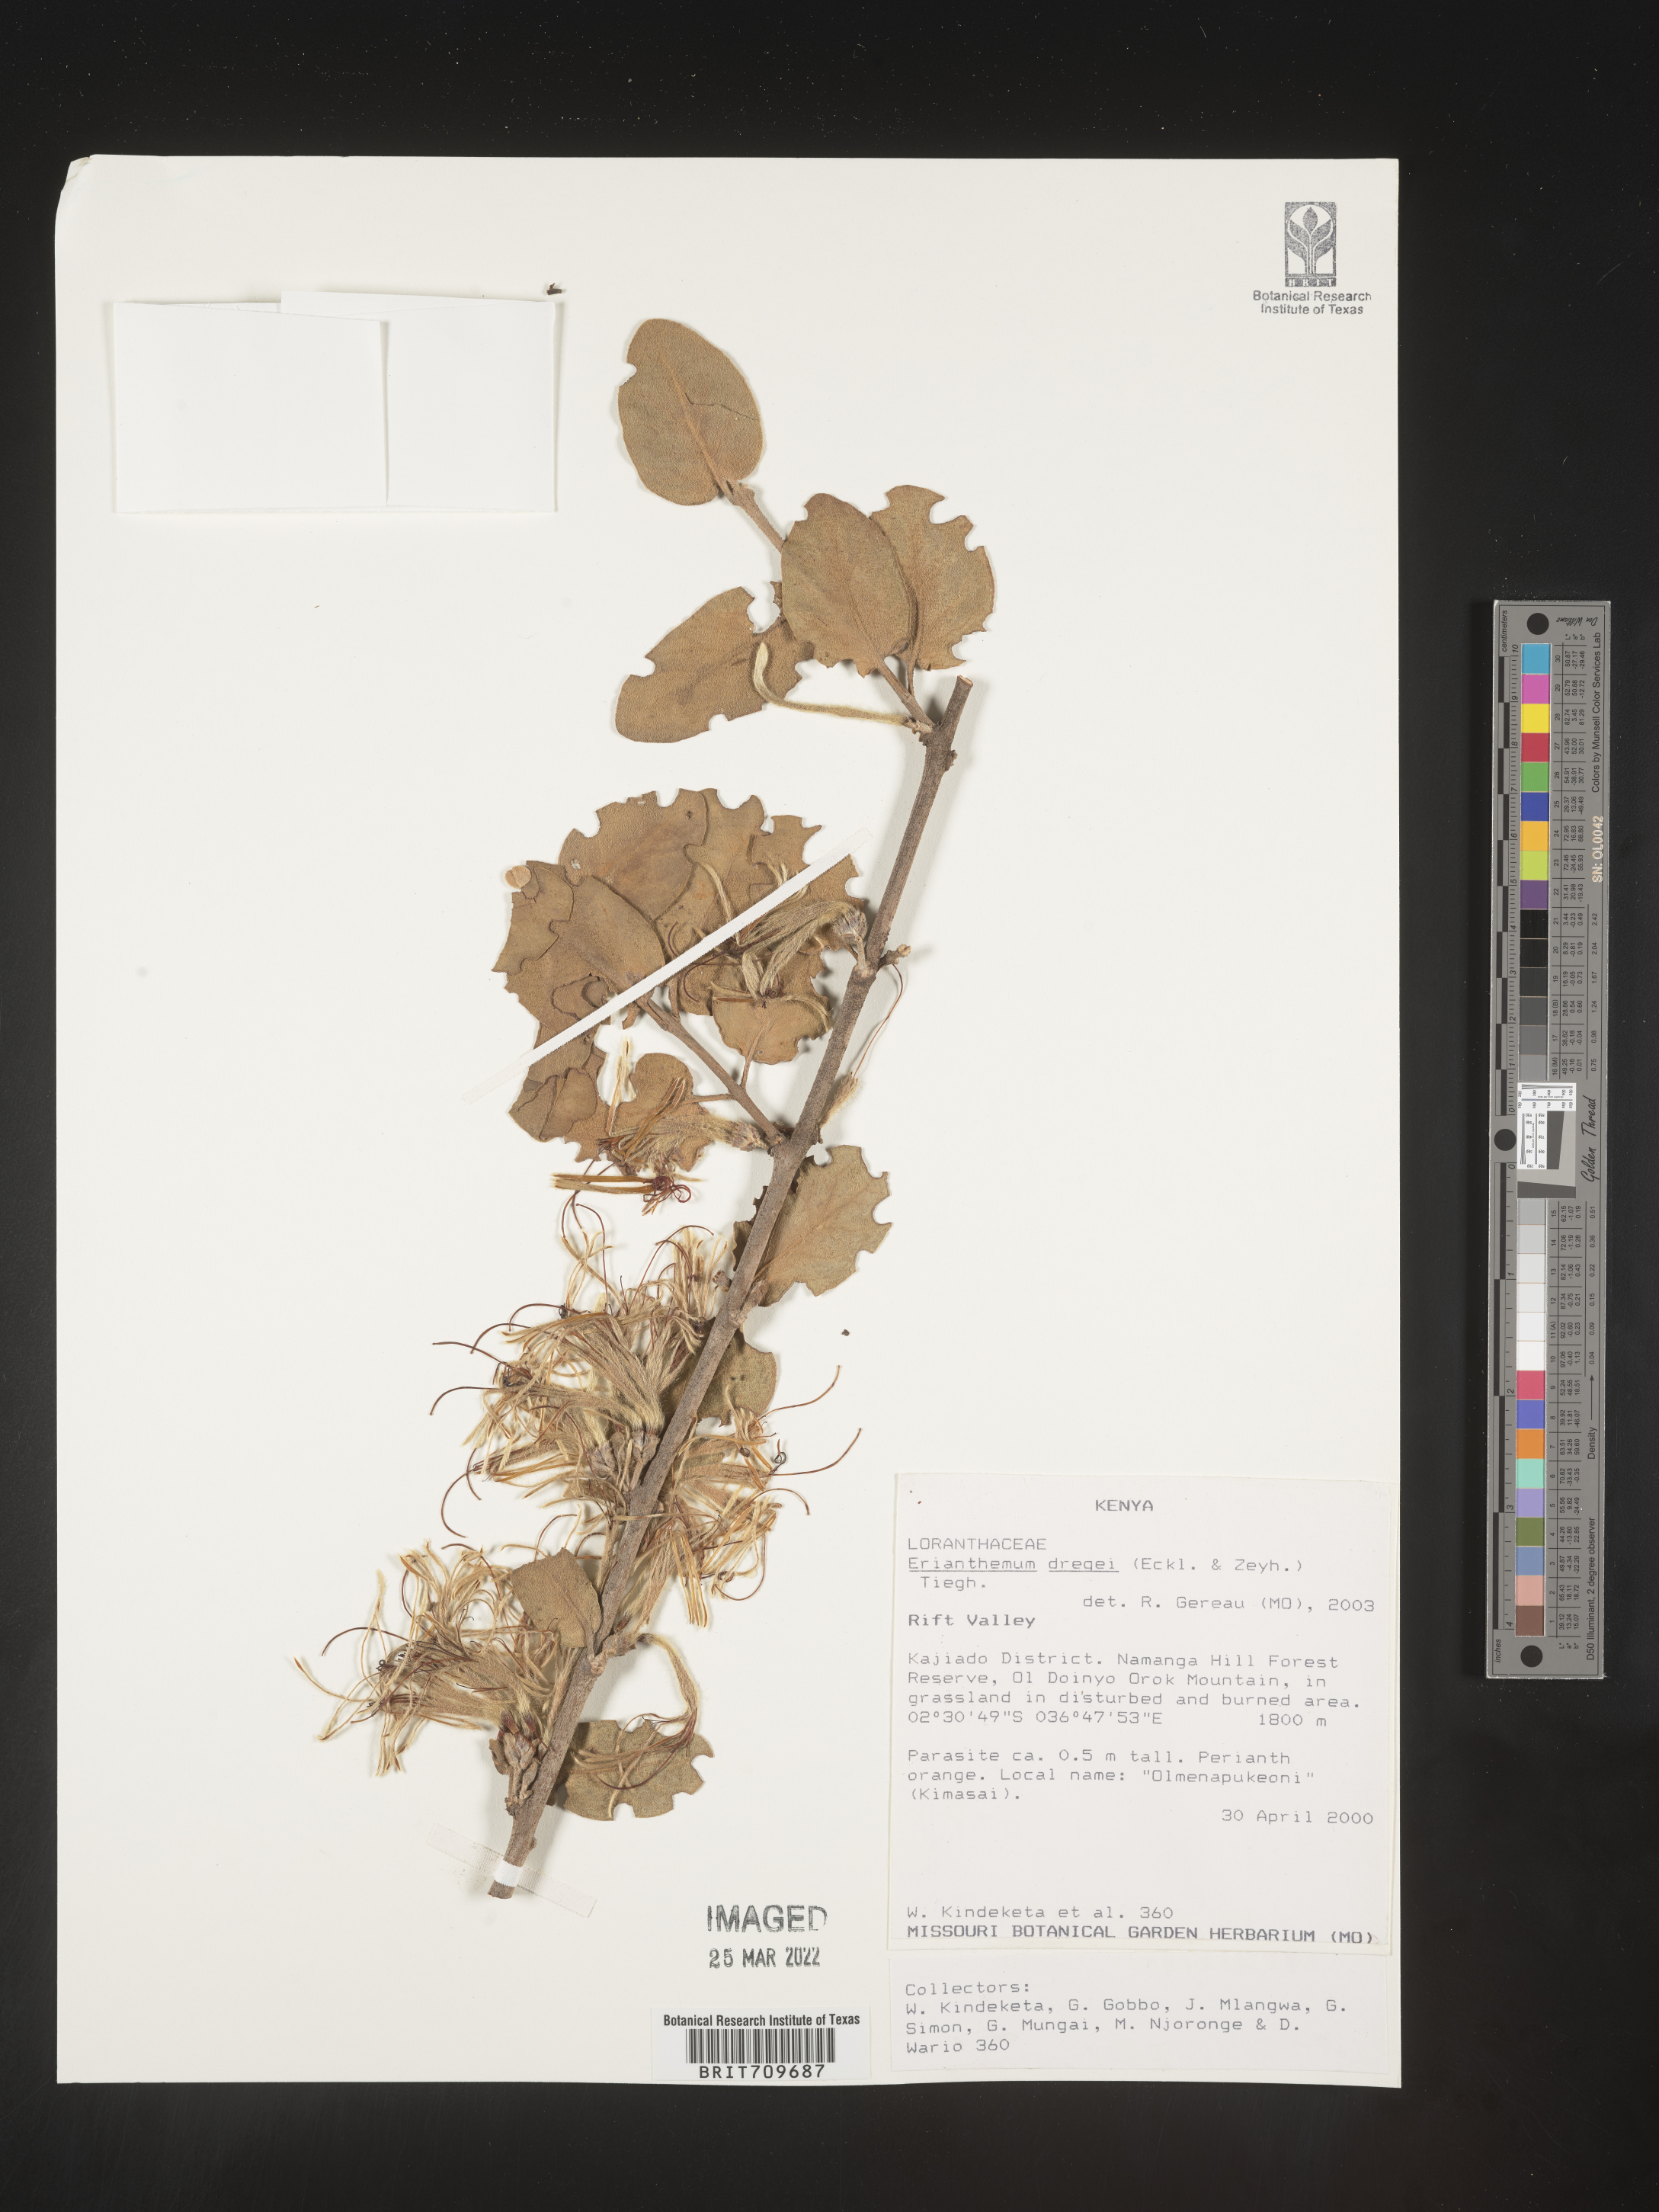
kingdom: Plantae
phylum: Tracheophyta
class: Magnoliopsida
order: Santalales
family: Loranthaceae
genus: Erianthemum
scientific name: Erianthemum
